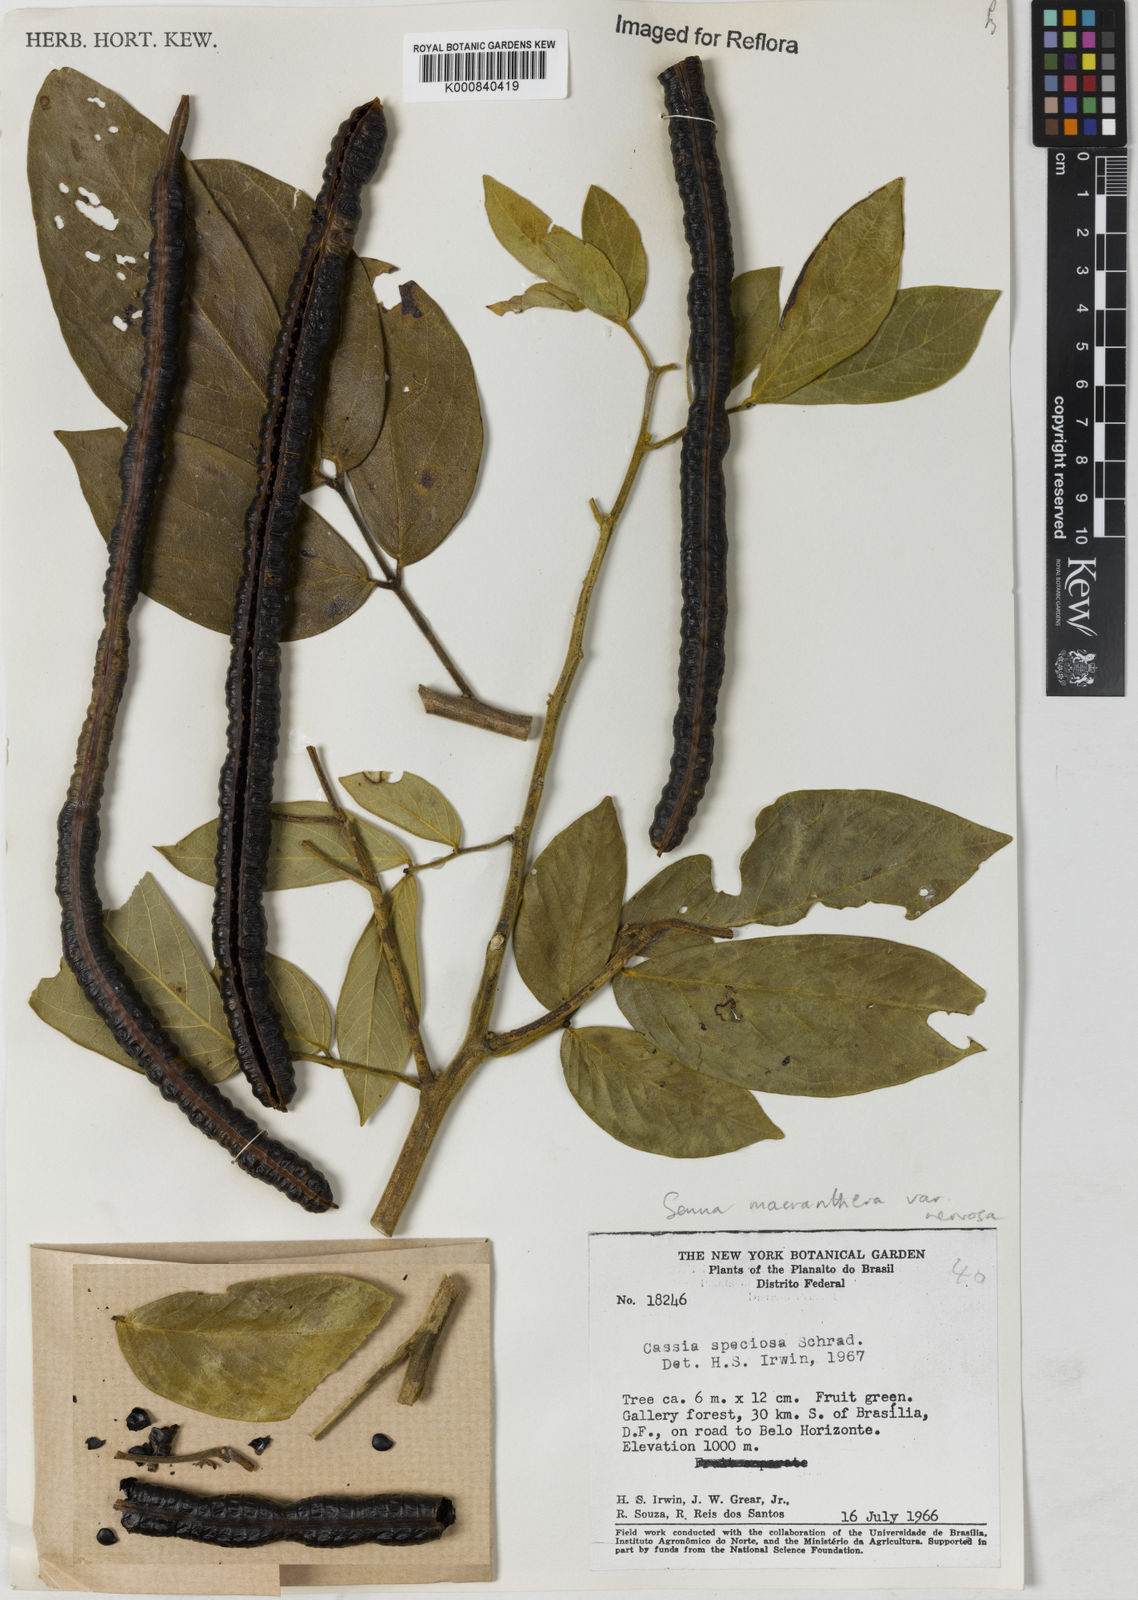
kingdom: Plantae
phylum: Tracheophyta
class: Magnoliopsida
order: Fabales
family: Fabaceae
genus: Senna
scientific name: Senna macranthera
